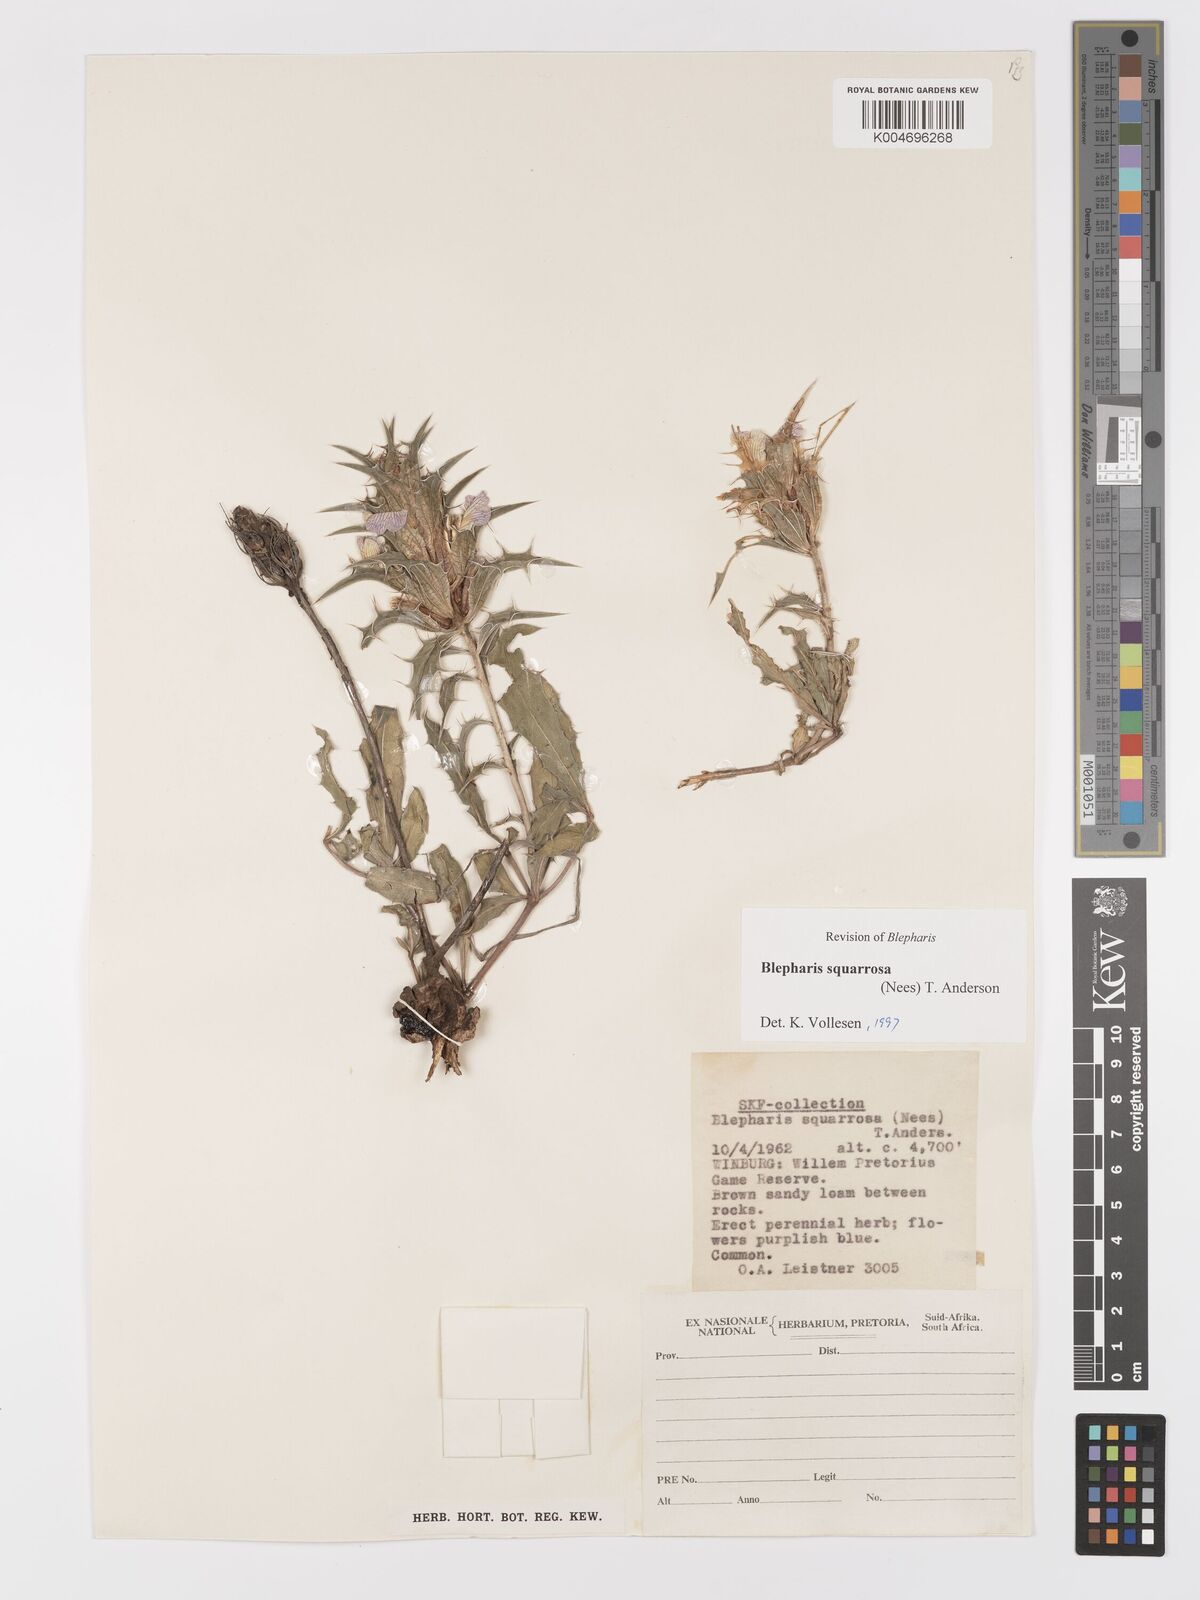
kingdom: Plantae
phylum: Tracheophyta
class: Magnoliopsida
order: Lamiales
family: Acanthaceae
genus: Blepharis
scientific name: Blepharis squarrosa
